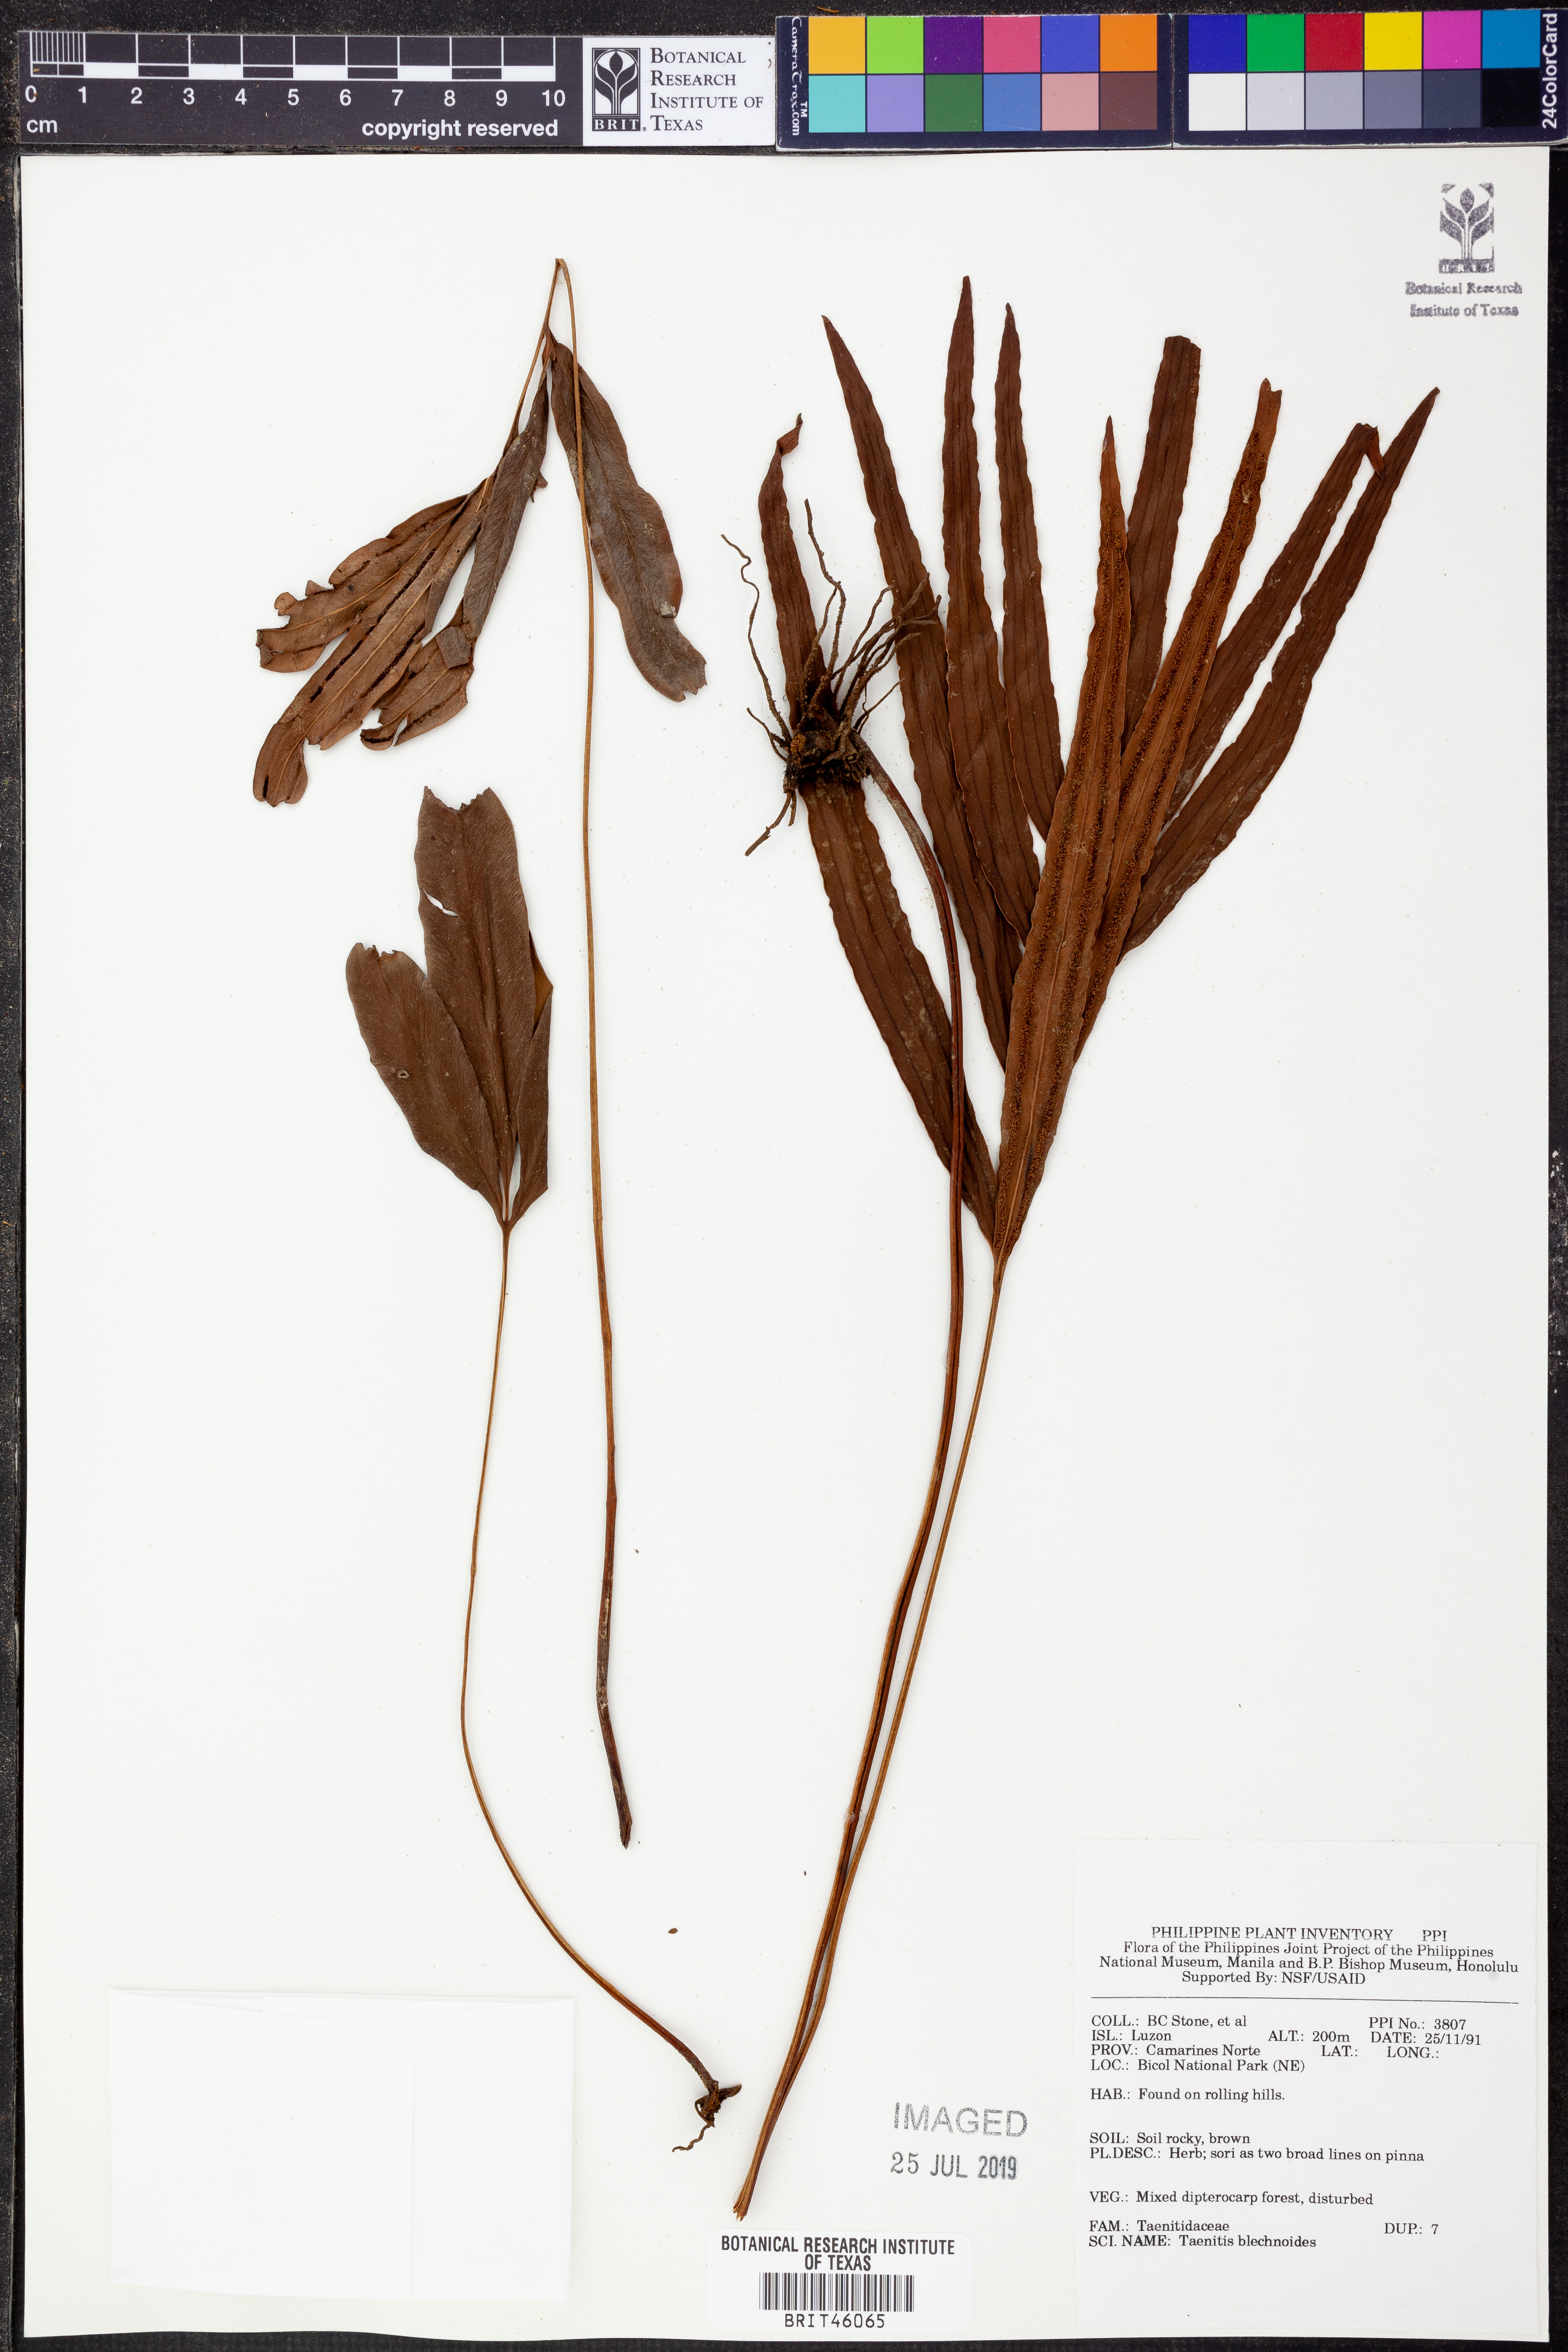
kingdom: Plantae
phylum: Tracheophyta
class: Polypodiopsida
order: Polypodiales
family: Pteridaceae
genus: Taenitis
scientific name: Taenitis blechnoides
